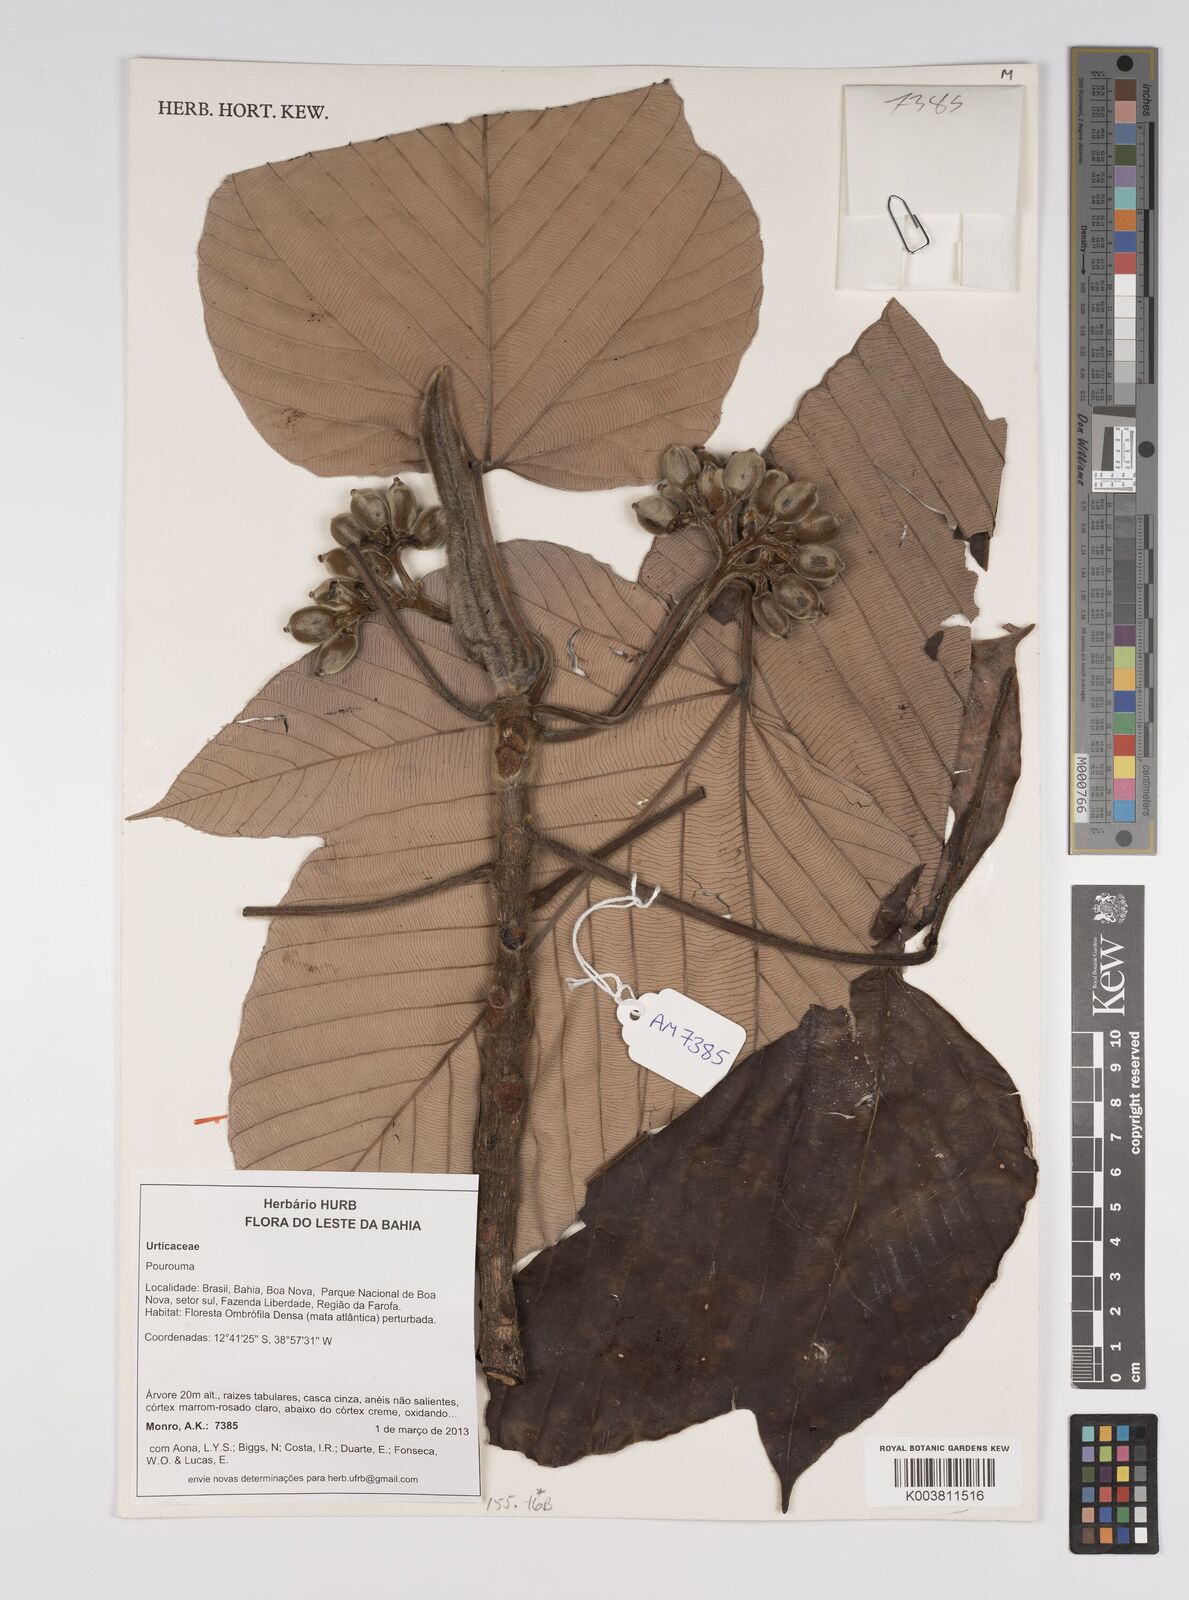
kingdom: Plantae
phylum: Tracheophyta
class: Magnoliopsida
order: Rosales
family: Urticaceae
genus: Pourouma
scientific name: Pourouma
